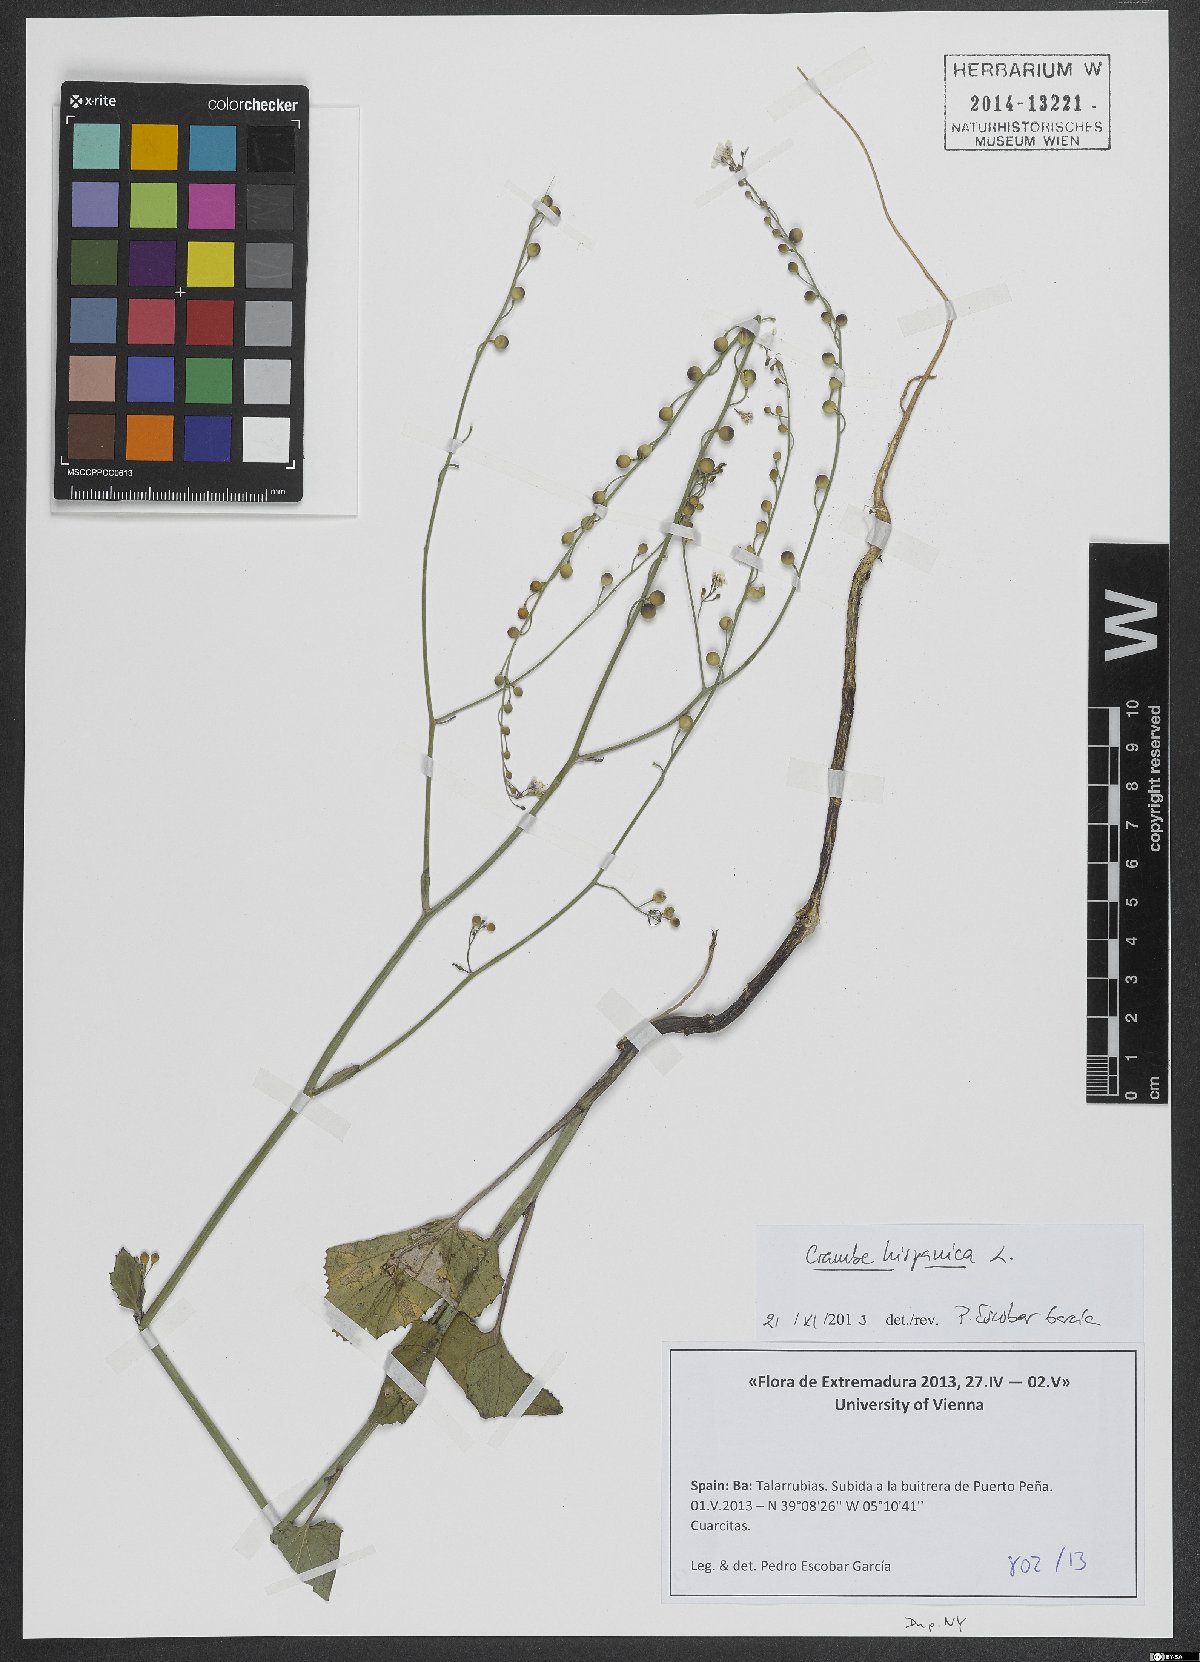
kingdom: Plantae
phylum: Tracheophyta
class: Magnoliopsida
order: Brassicales
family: Brassicaceae
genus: Crambe
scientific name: Crambe hispanica
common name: Abyssinian mustard
